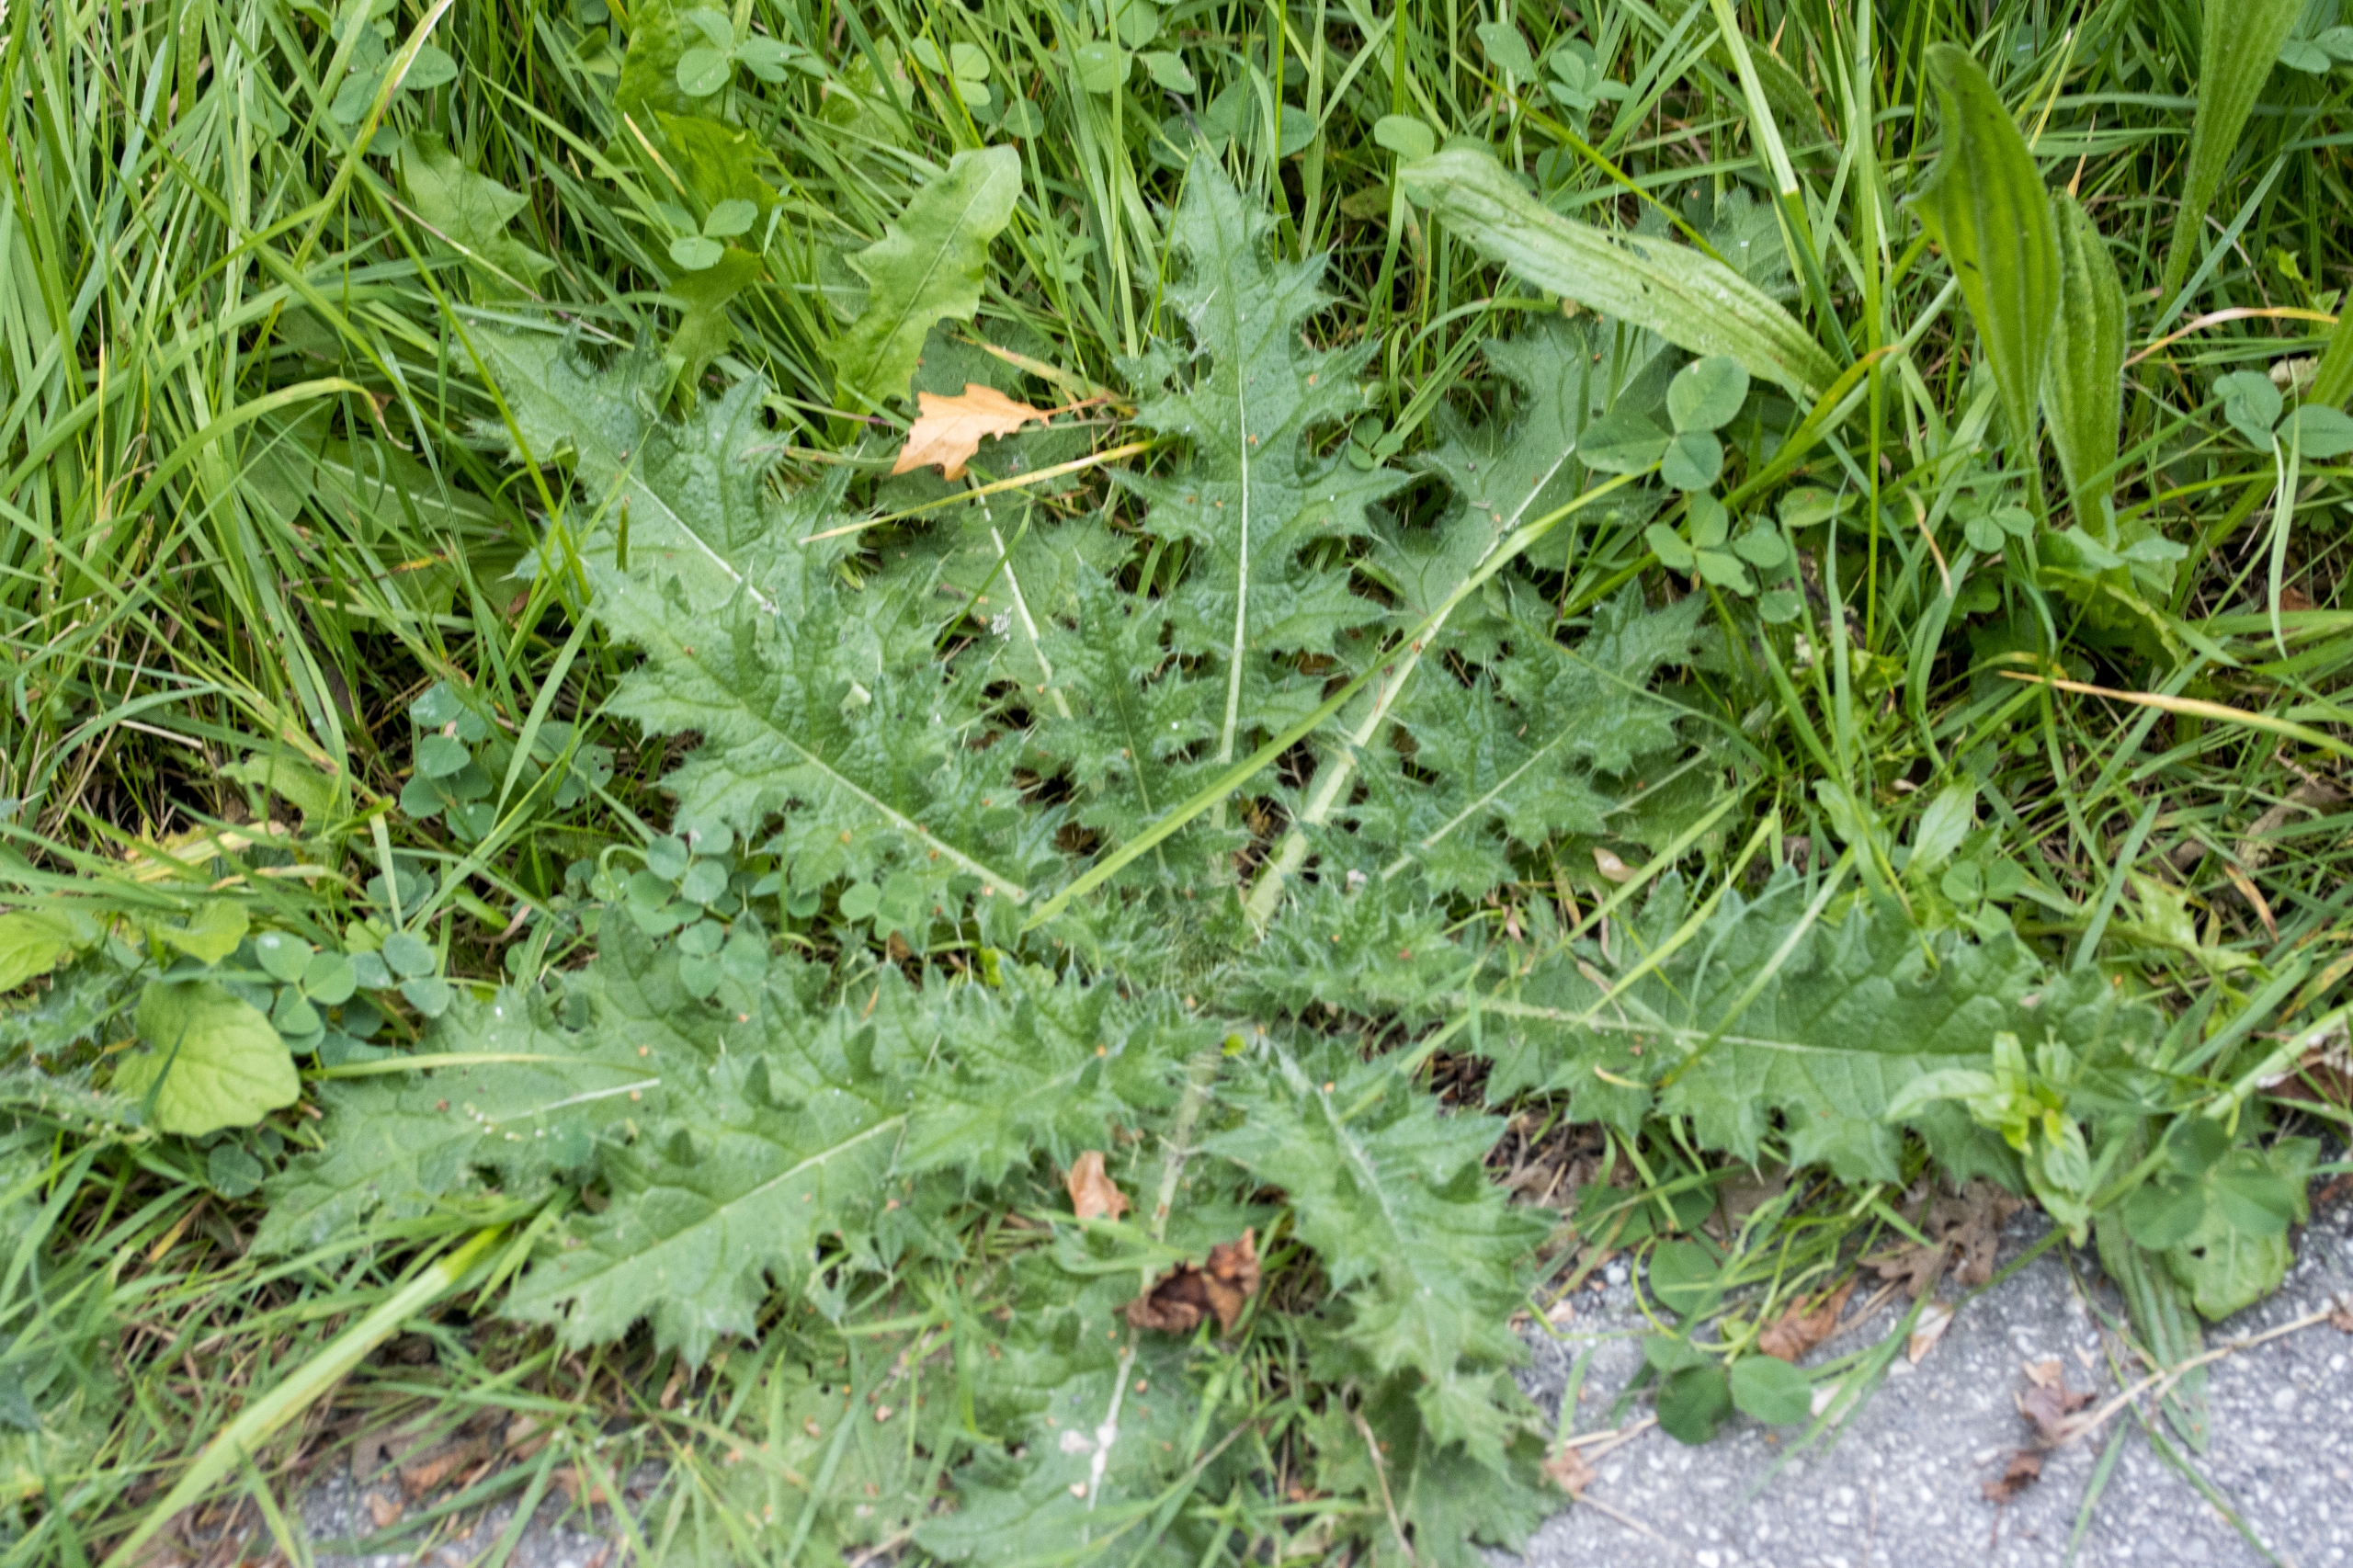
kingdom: Plantae
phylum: Tracheophyta
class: Magnoliopsida
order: Asterales
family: Asteraceae
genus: Cirsium
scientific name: Cirsium vulgare
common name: Horse-tidsel
